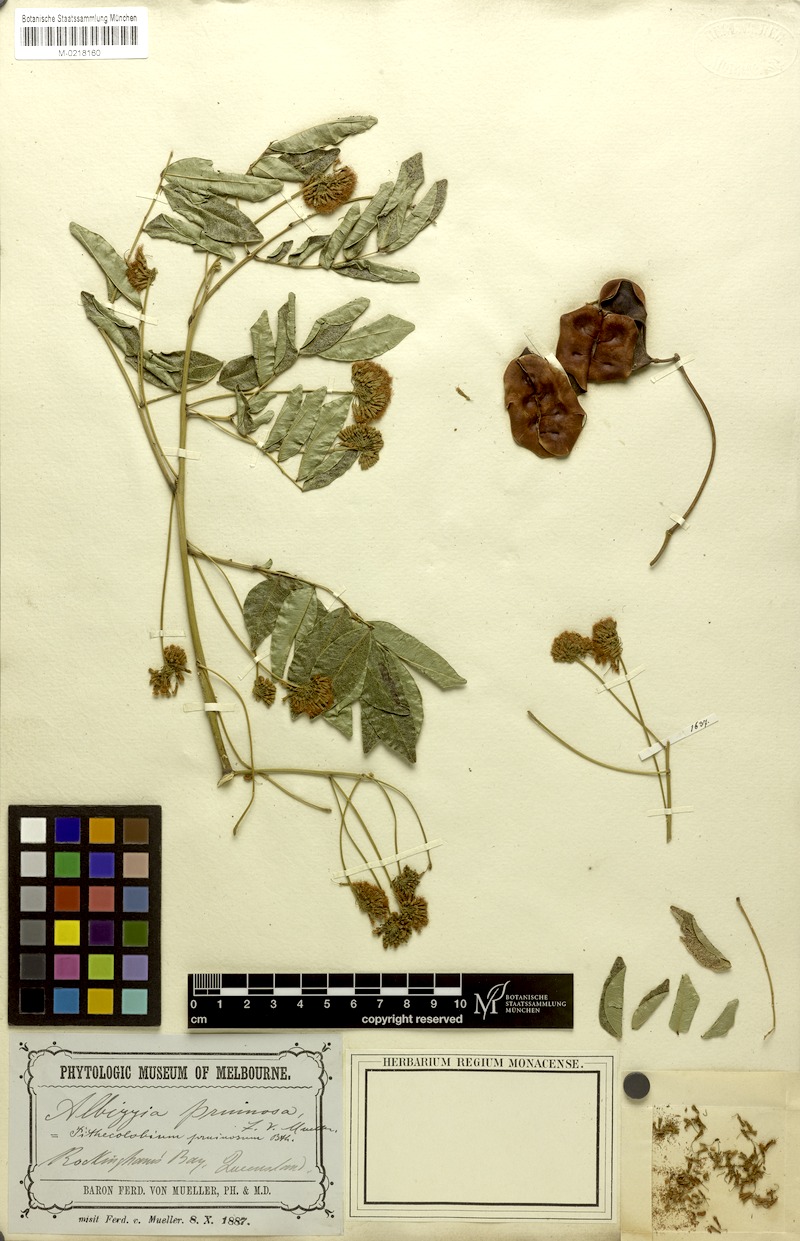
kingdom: Plantae
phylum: Tracheophyta
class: Magnoliopsida
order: Fabales
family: Fabaceae
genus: Pararchidendron
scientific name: Pararchidendron pruinosum
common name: Tulip siris
